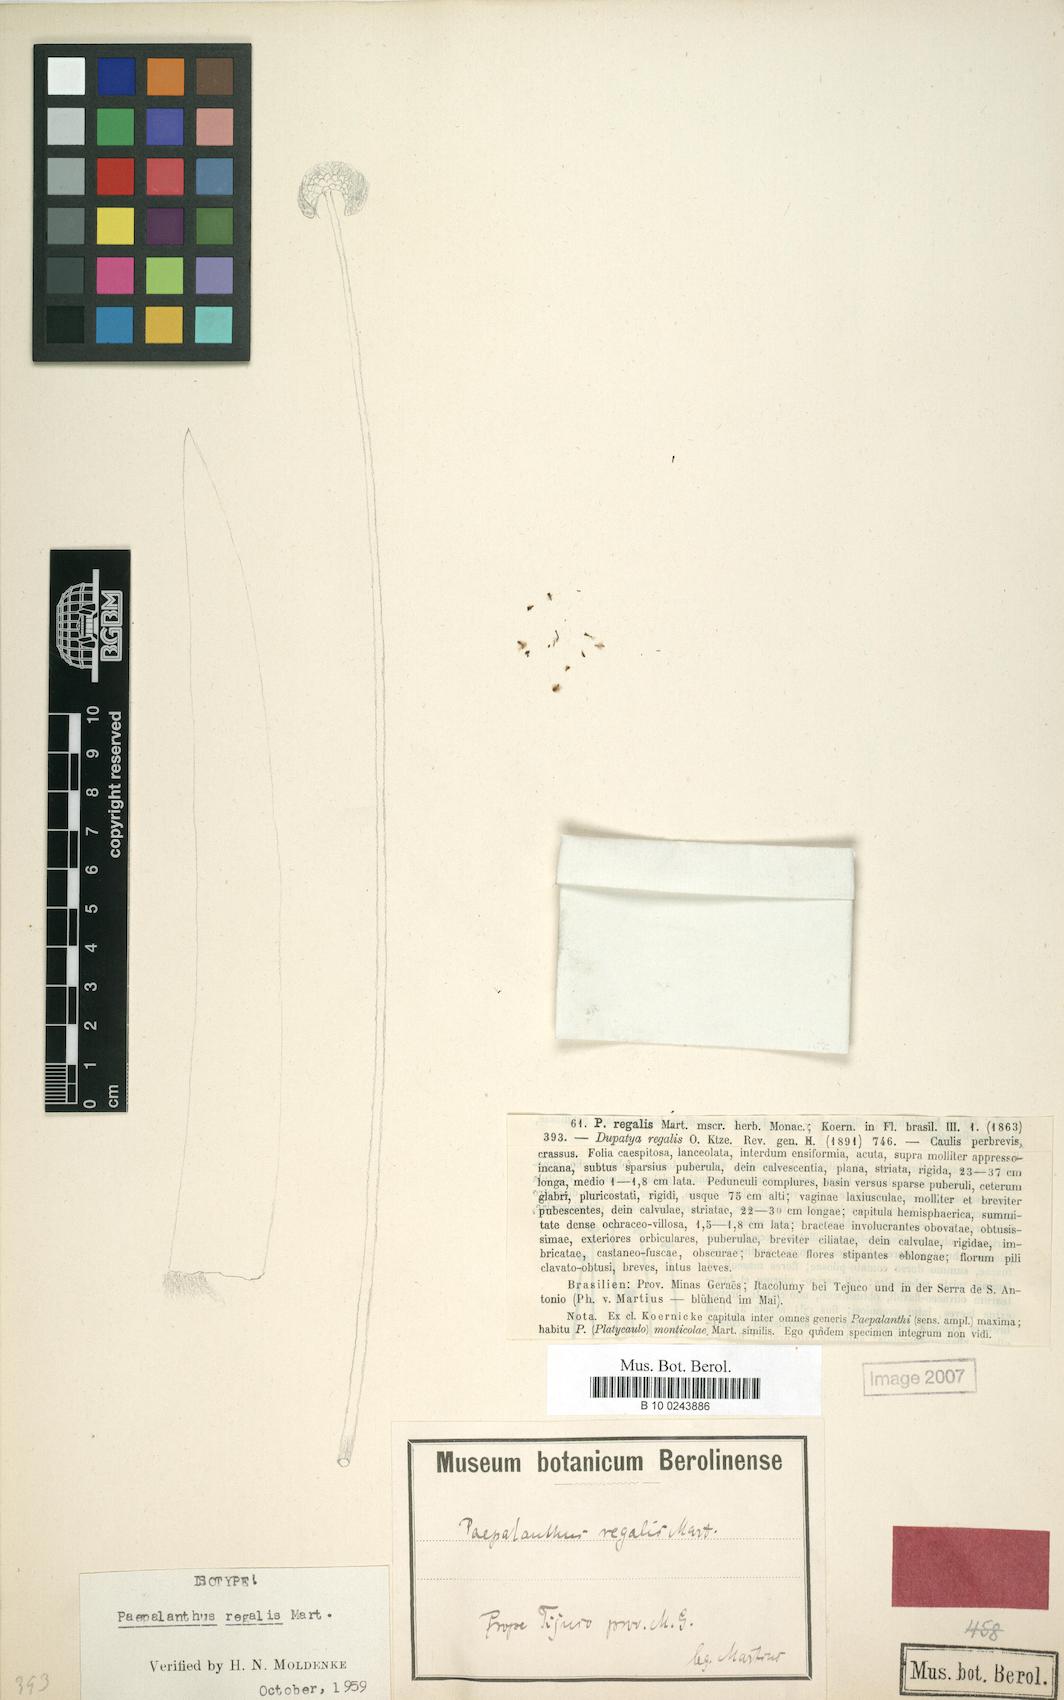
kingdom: Plantae
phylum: Tracheophyta
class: Liliopsida
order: Poales
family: Eriocaulaceae
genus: Paepalanthus
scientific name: Paepalanthus regalis
